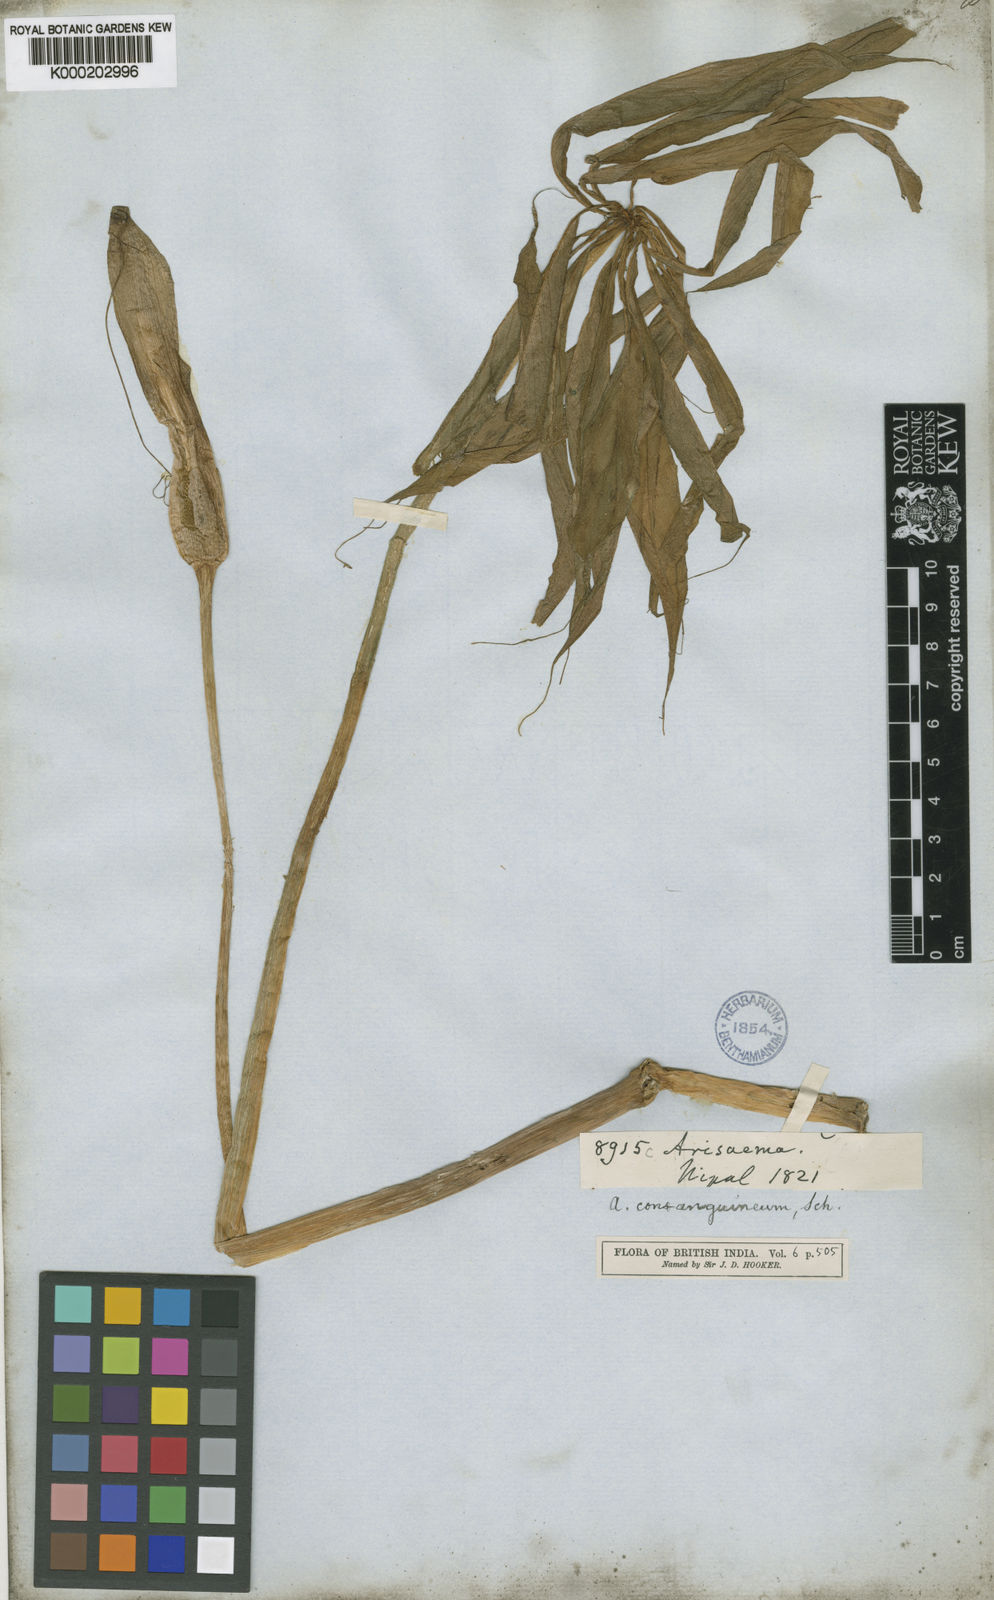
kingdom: Plantae
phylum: Tracheophyta
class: Liliopsida
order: Alismatales
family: Araceae
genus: Arisaema
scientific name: Arisaema erubescens
